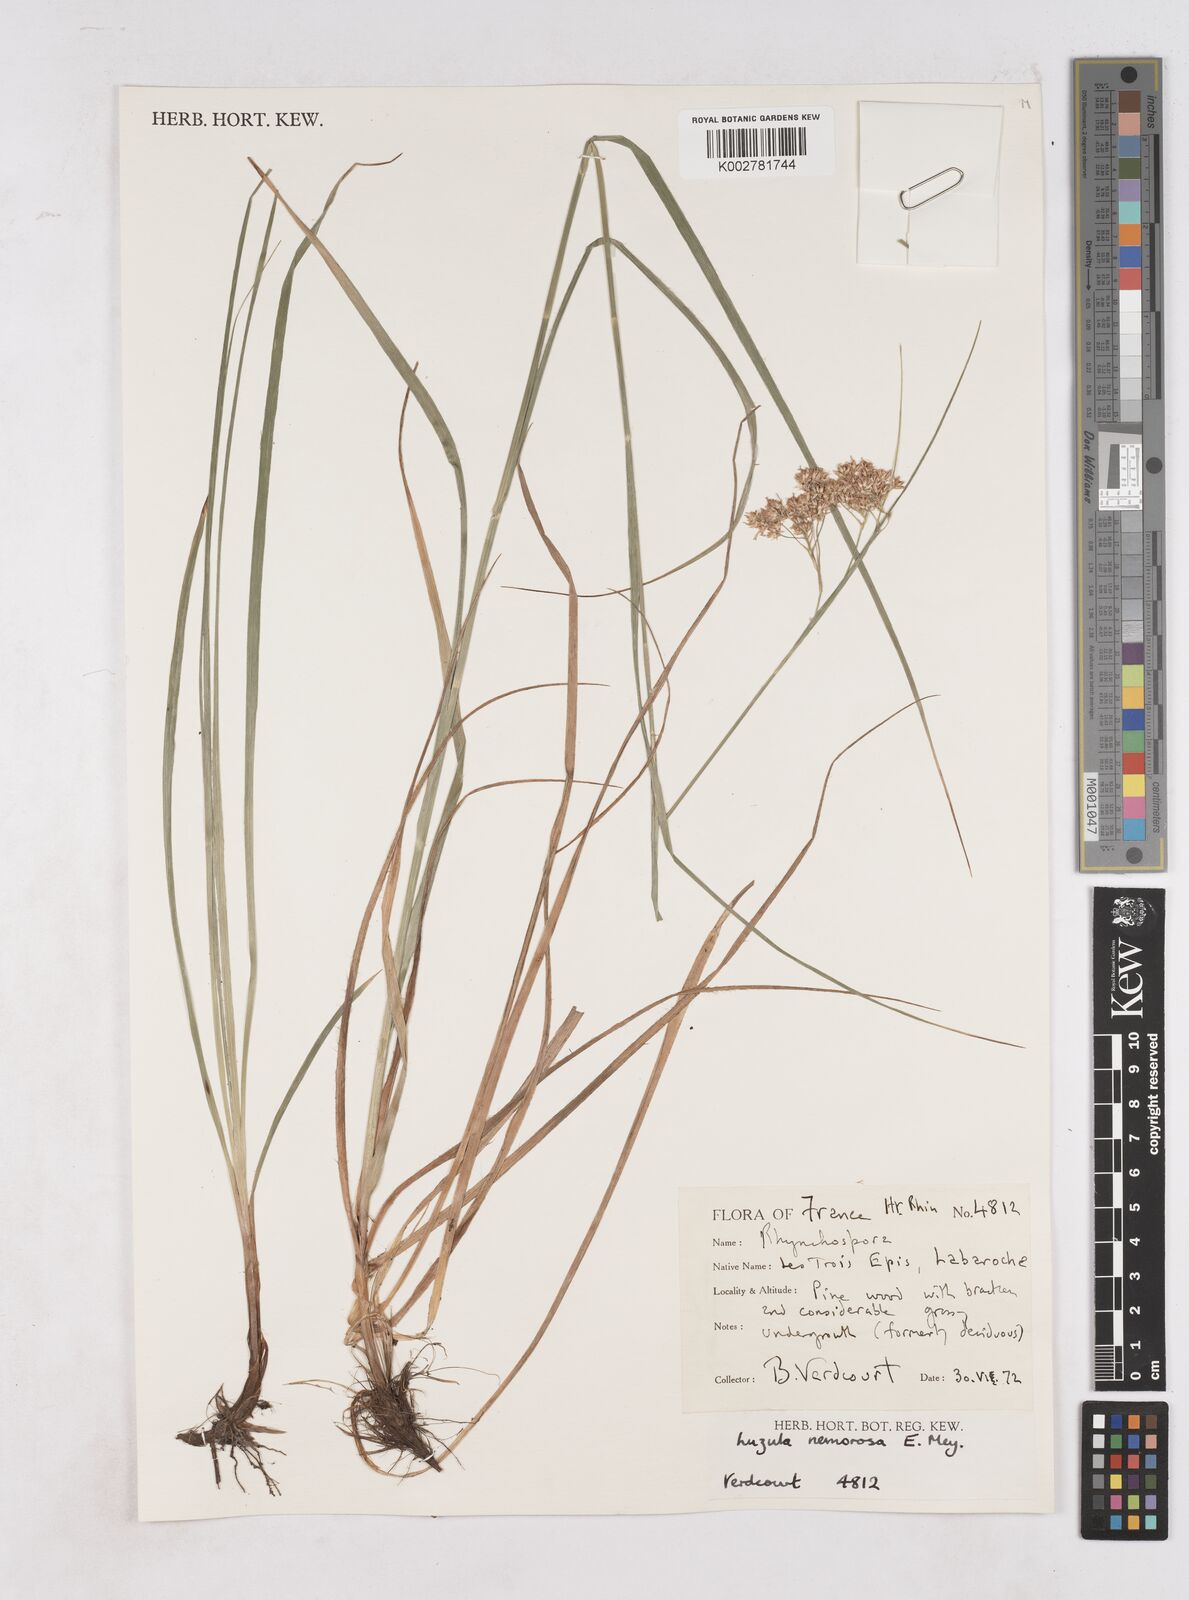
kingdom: Plantae
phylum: Tracheophyta
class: Liliopsida
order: Poales
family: Juncaceae
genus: Luzula
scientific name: Luzula luzuloides
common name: White wood-rush
